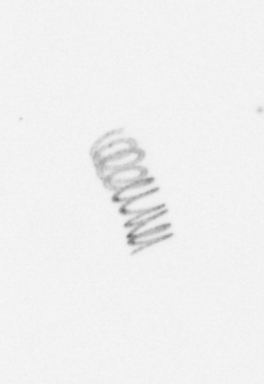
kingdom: Chromista
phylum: Ochrophyta
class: Bacillariophyceae
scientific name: Bacillariophyceae
